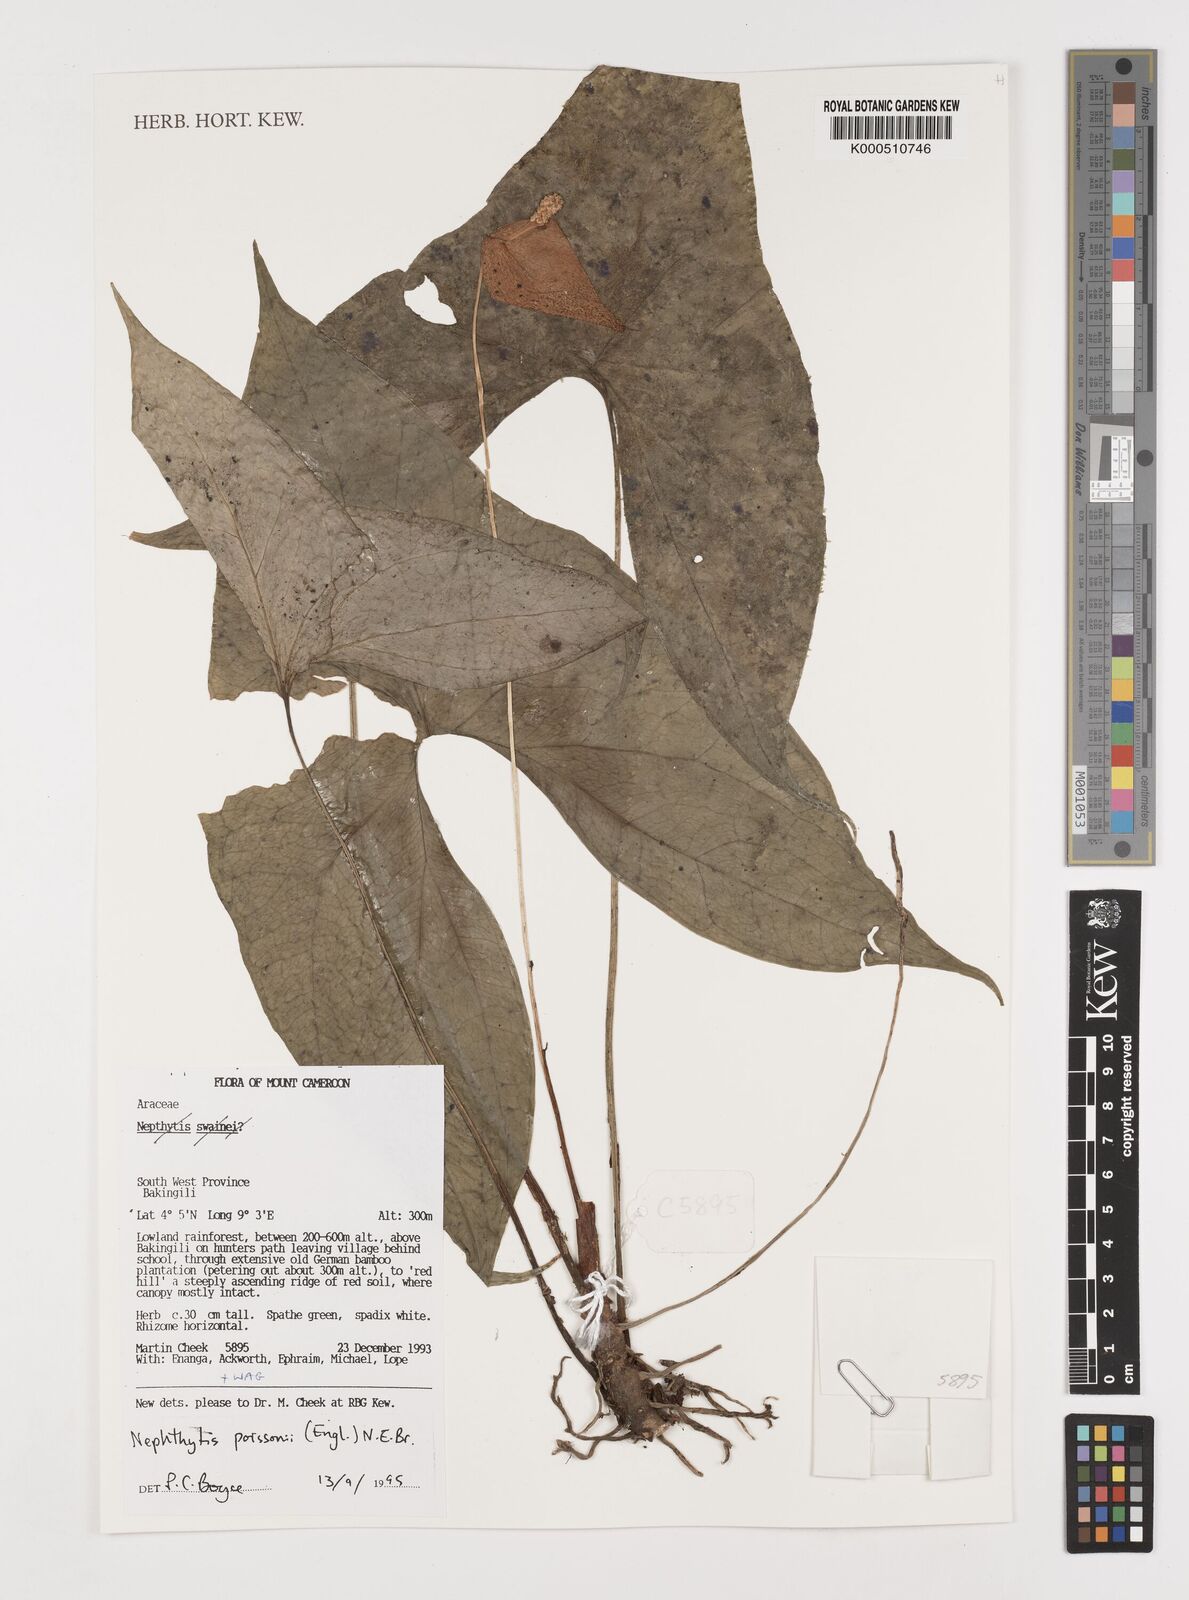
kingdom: Plantae
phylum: Tracheophyta
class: Liliopsida
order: Alismatales
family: Araceae
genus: Nephthytis
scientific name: Nephthytis poissonii
